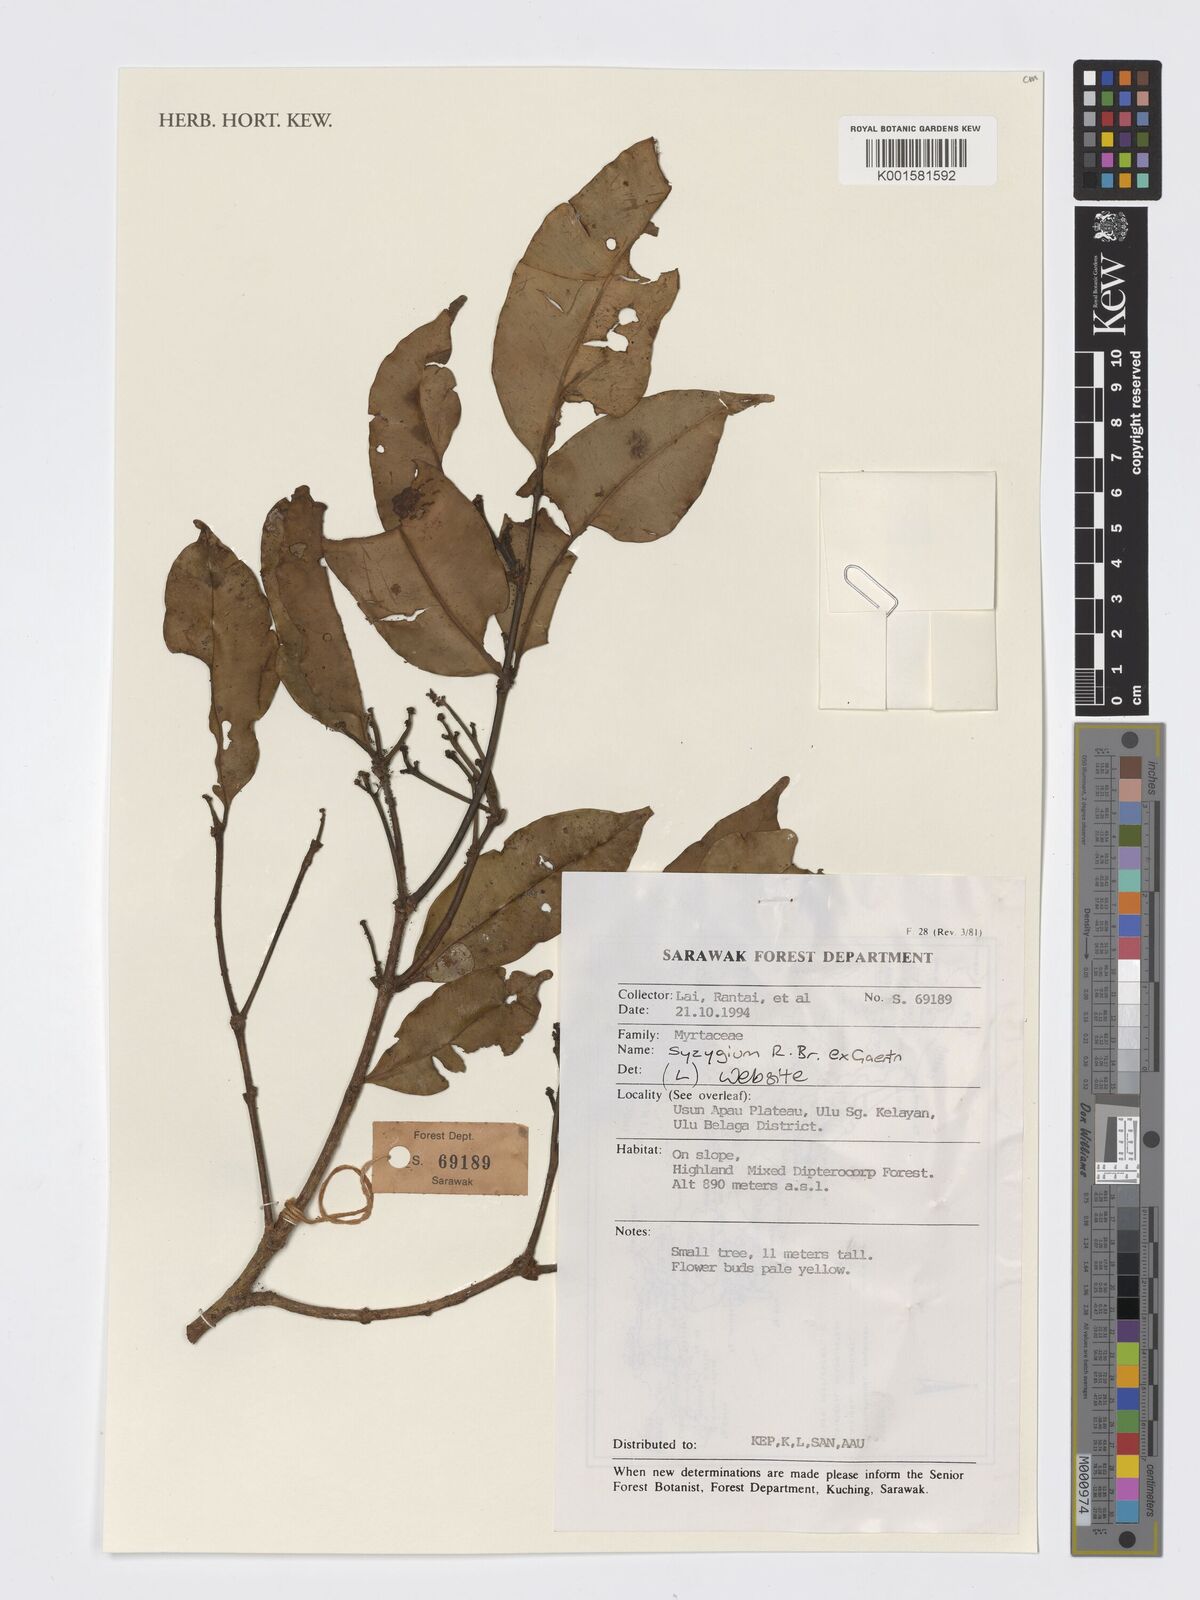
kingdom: Plantae
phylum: Tracheophyta
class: Magnoliopsida
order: Myrtales
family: Myrtaceae
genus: Syzygium
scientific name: Syzygium
